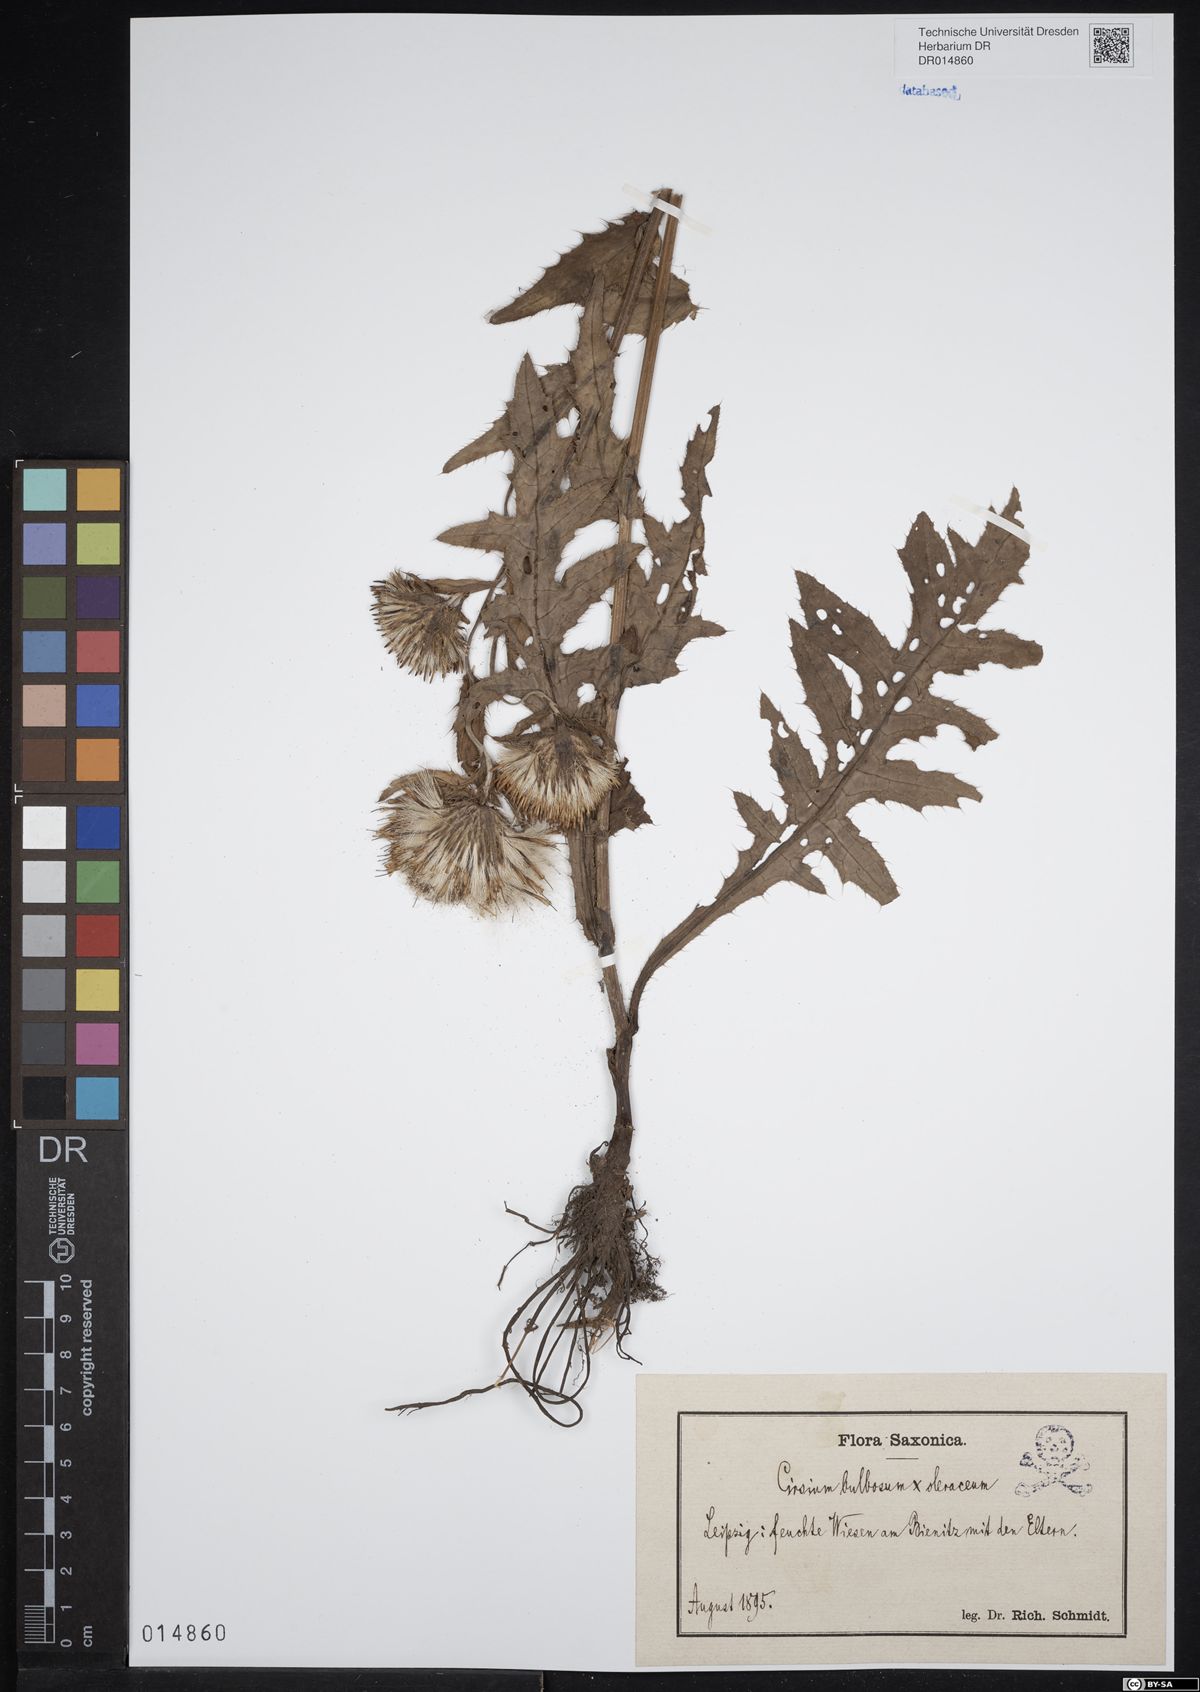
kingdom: Plantae
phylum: Tracheophyta
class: Magnoliopsida
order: Asterales
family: Asteraceae
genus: Cirsium
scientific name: Cirsium lachenalii
